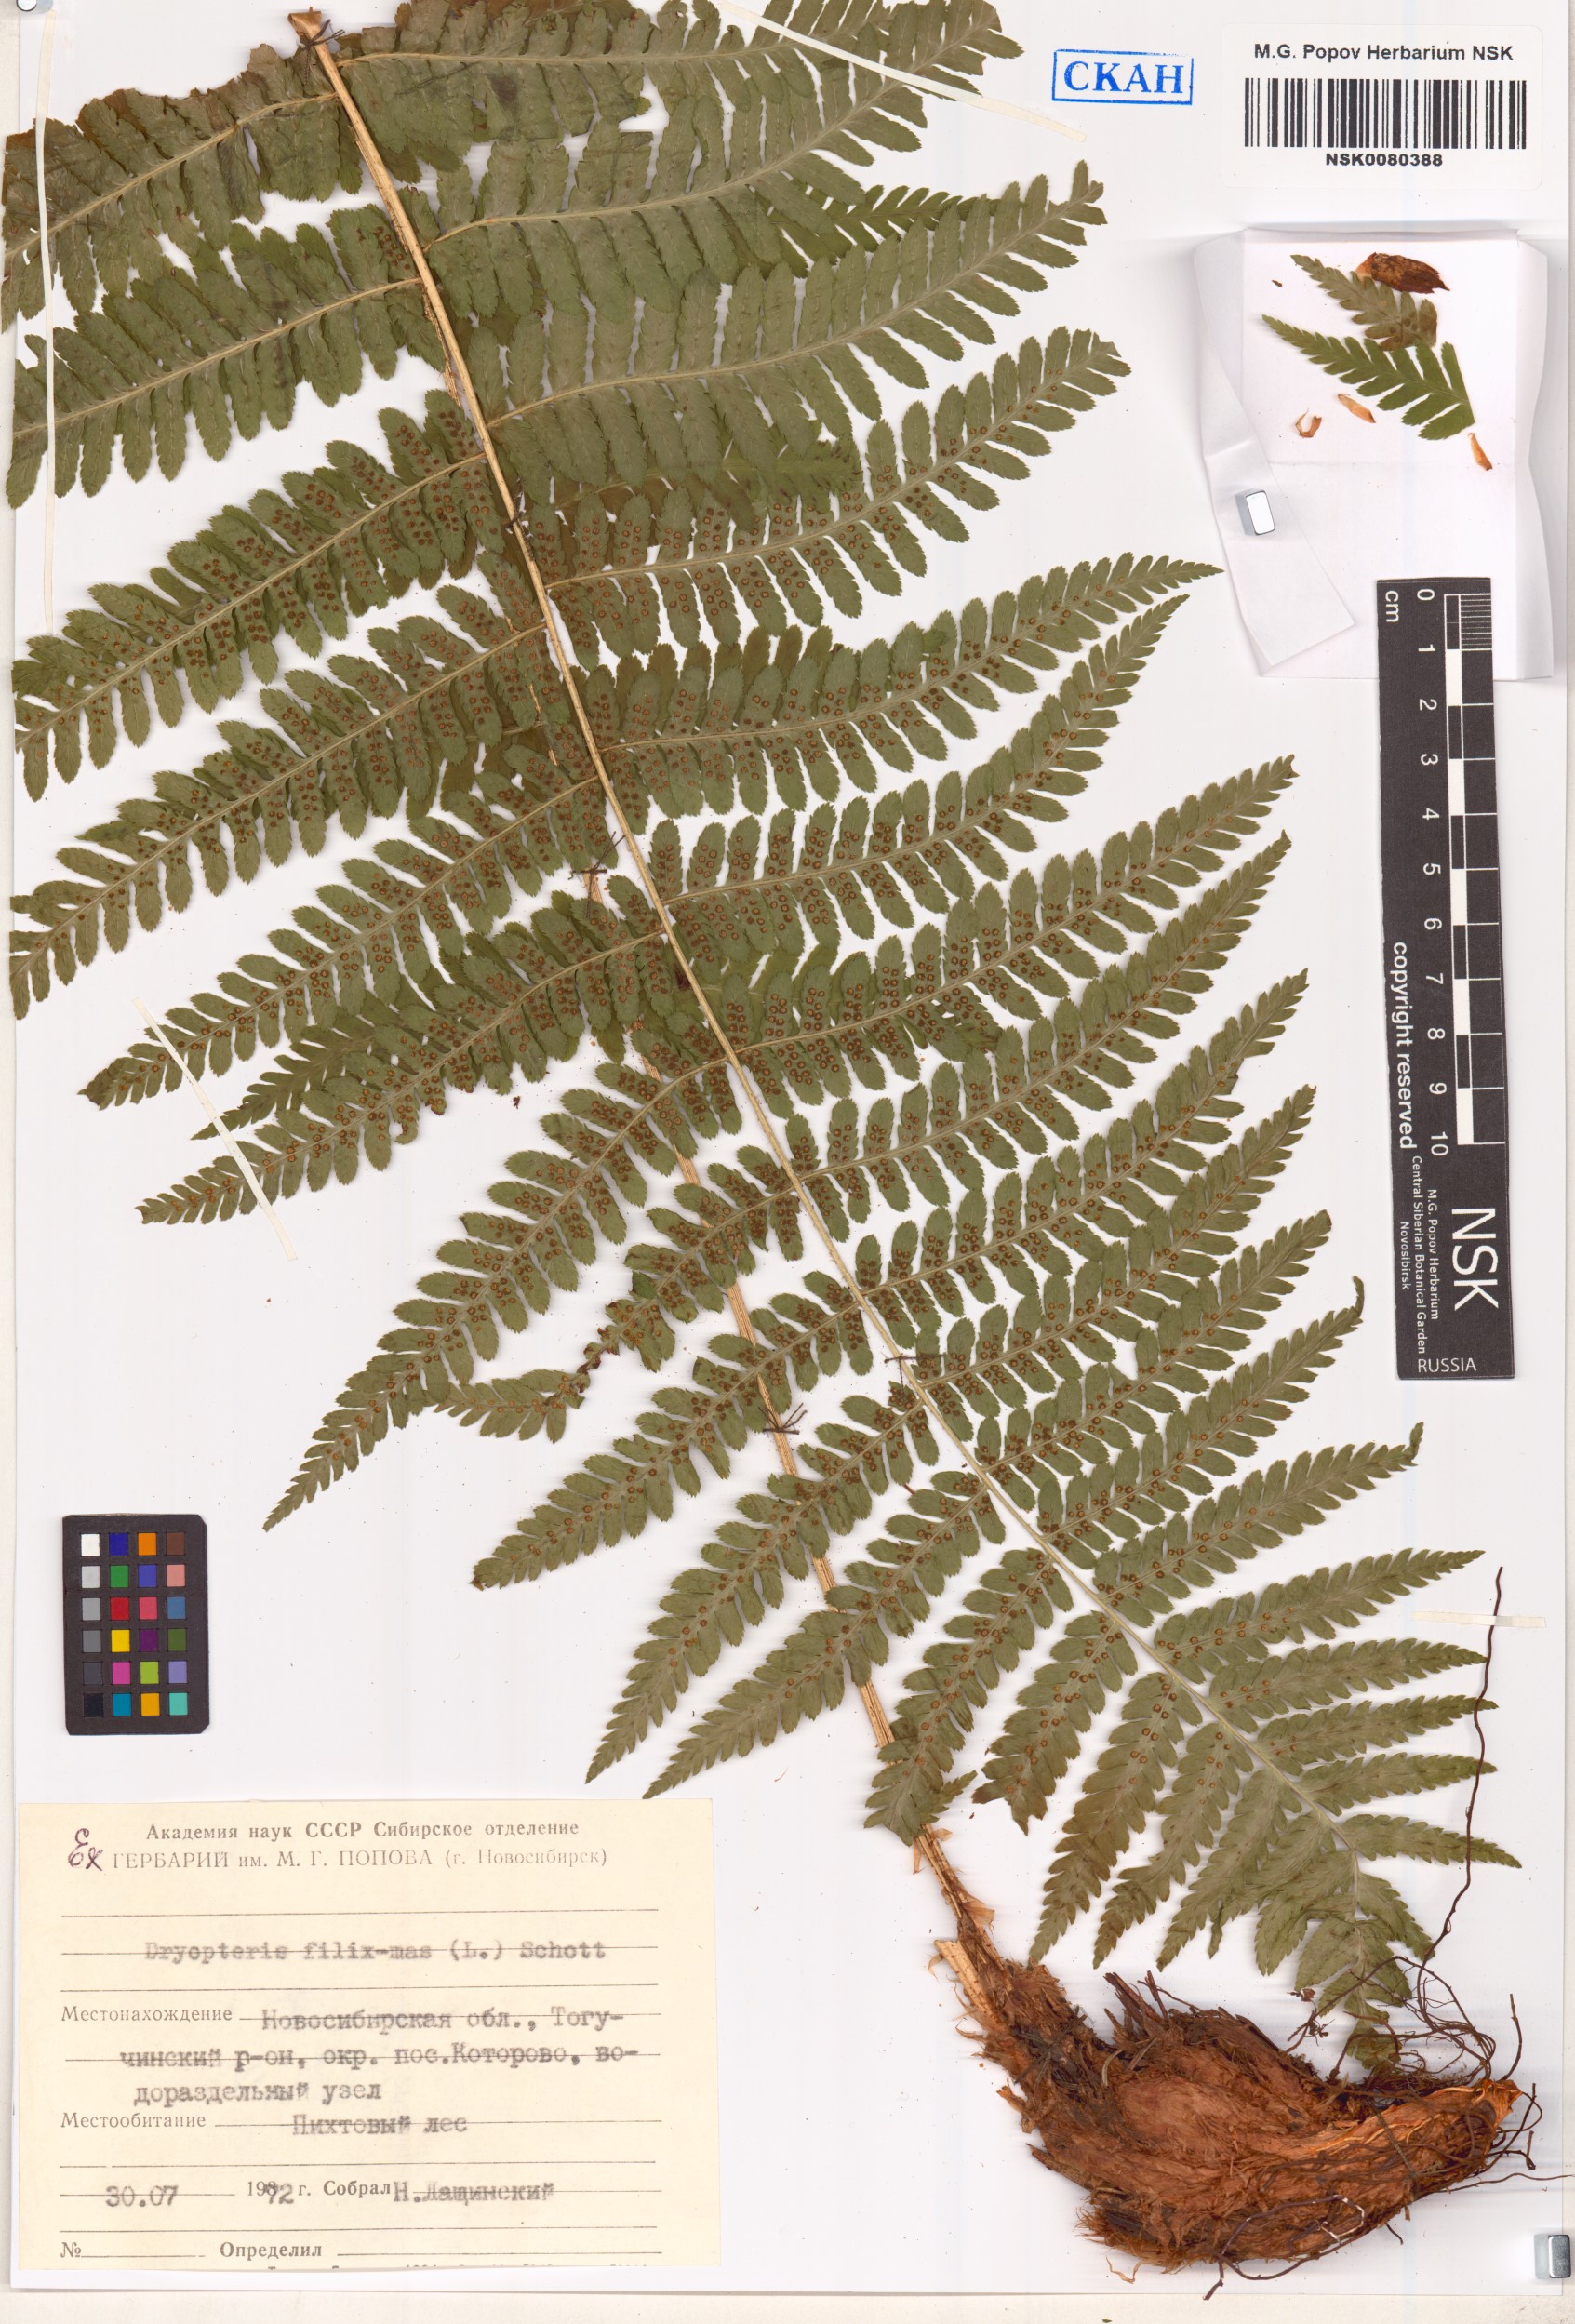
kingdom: Plantae
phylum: Tracheophyta
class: Polypodiopsida
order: Polypodiales
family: Dryopteridaceae
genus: Dryopteris
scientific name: Dryopteris filix-mas
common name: Male fern
